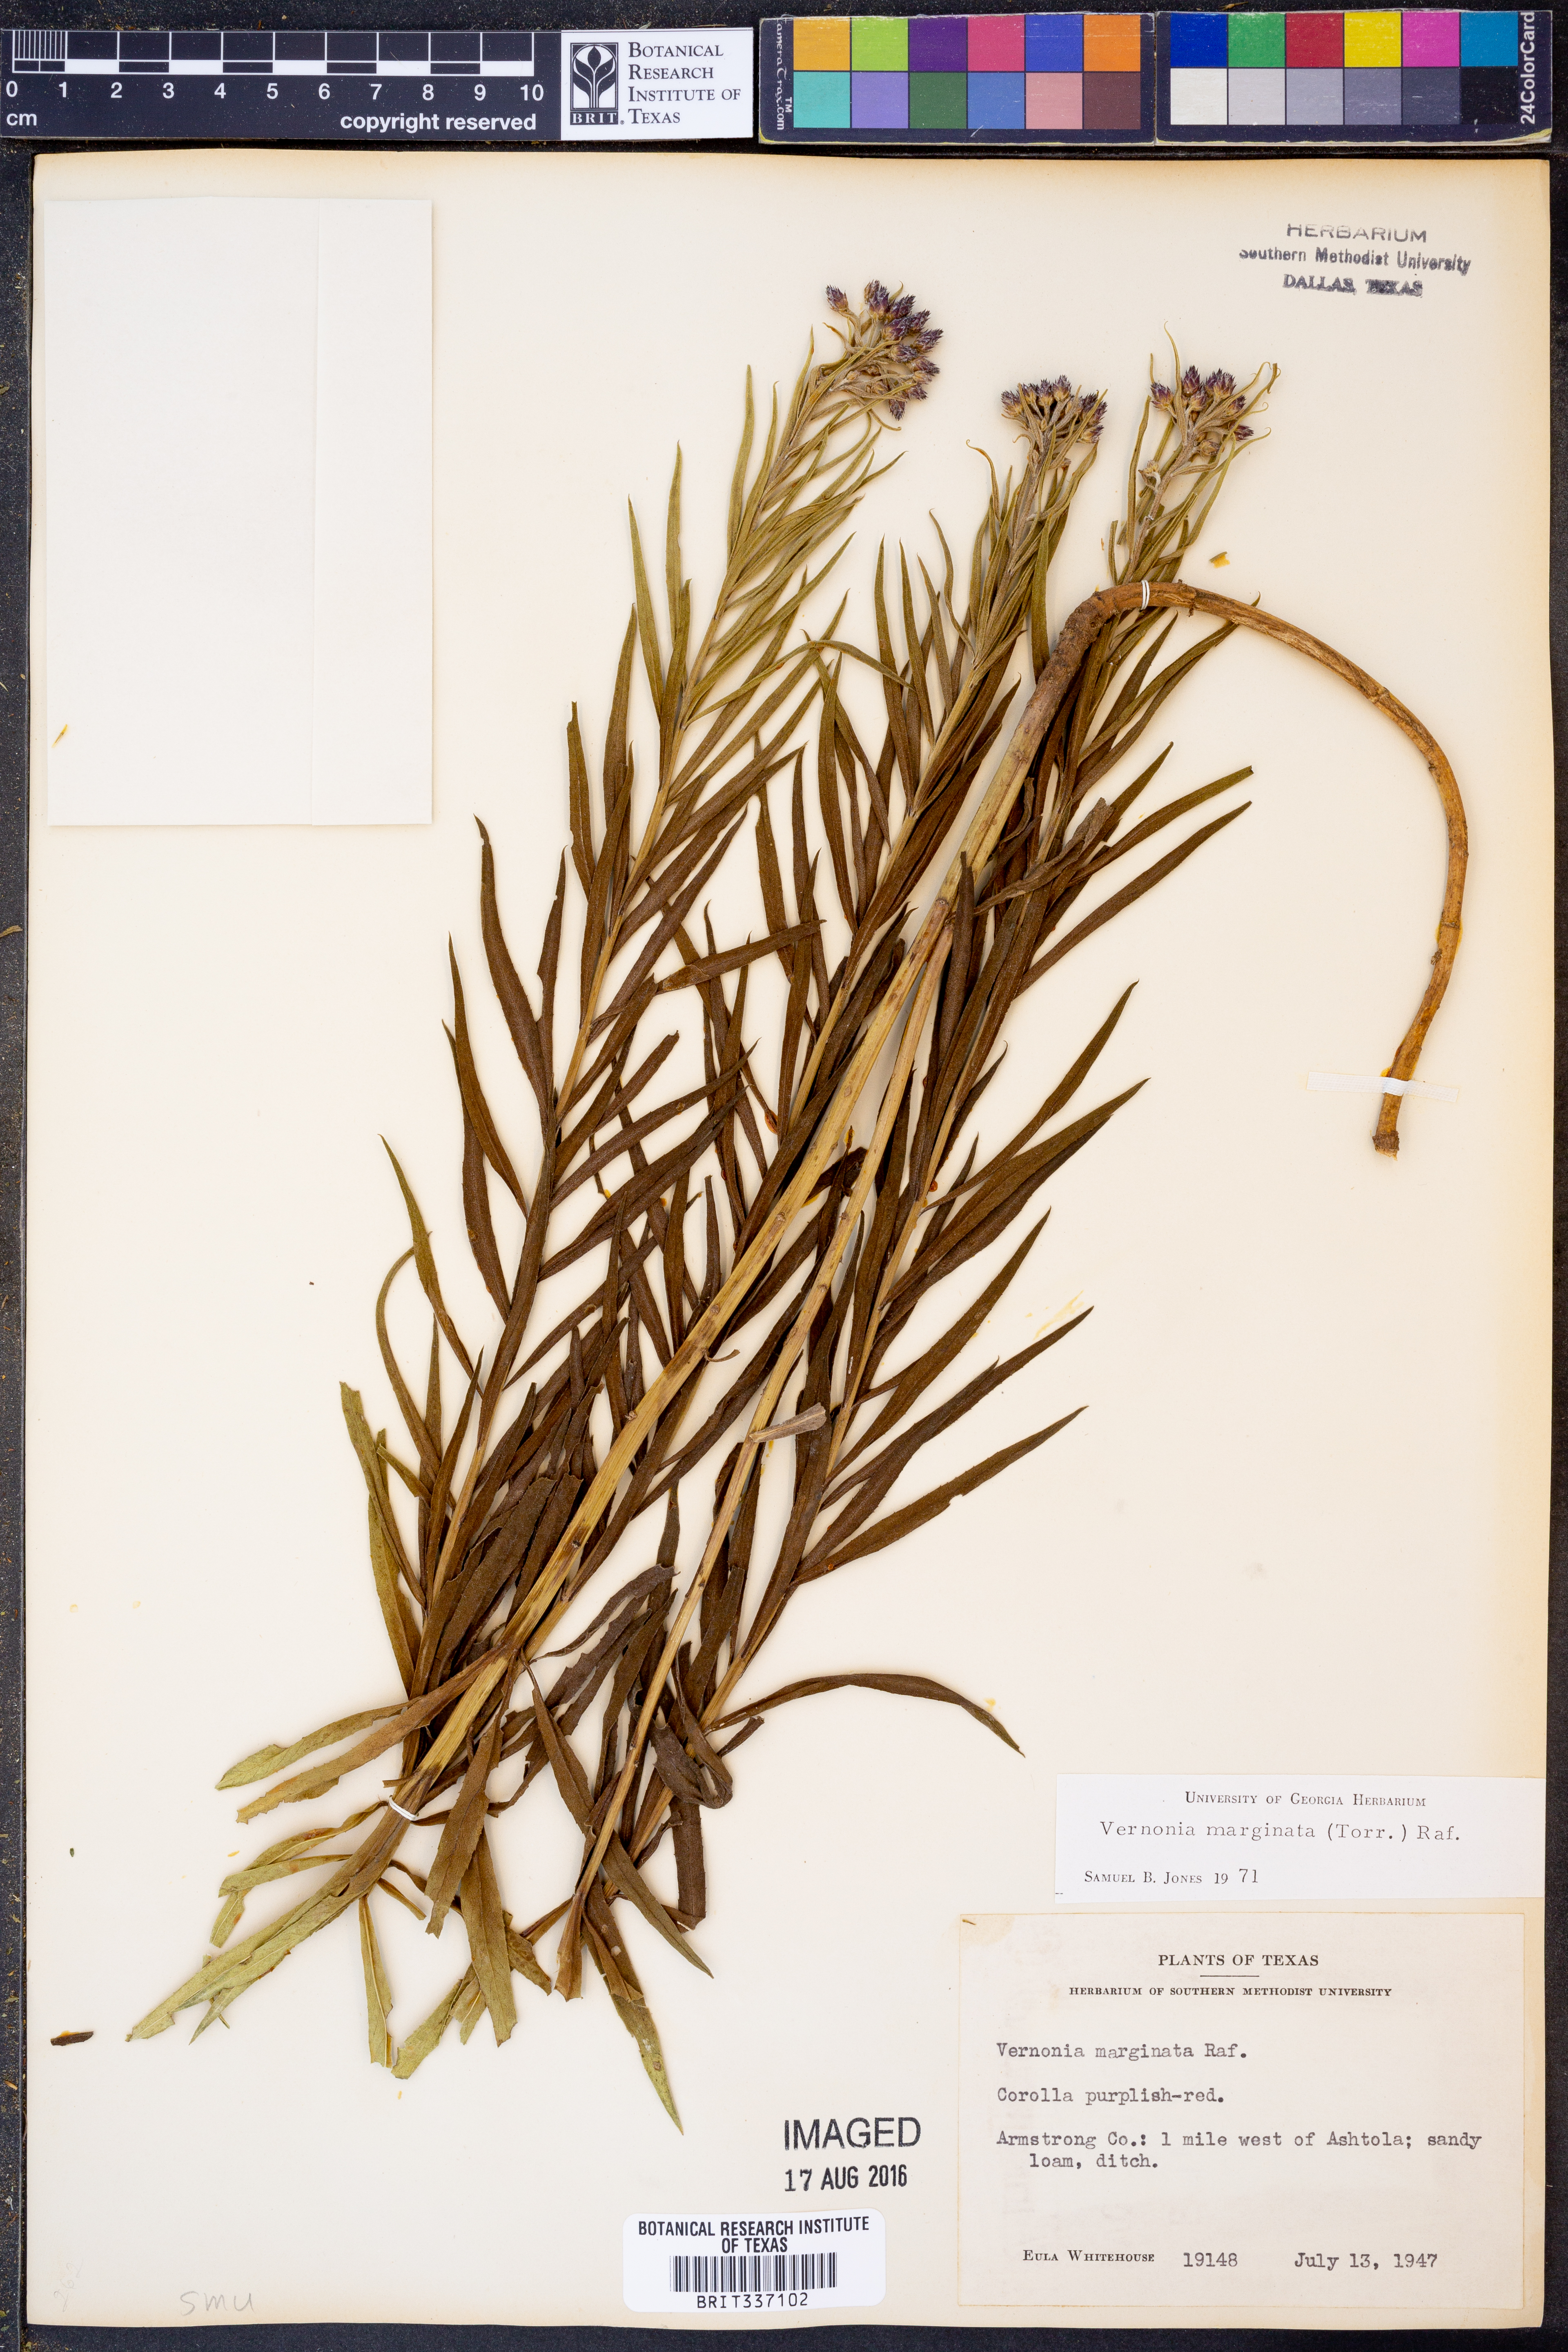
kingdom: Plantae
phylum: Tracheophyta
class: Magnoliopsida
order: Asterales
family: Asteraceae
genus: Vernonia
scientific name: Vernonia marginata
